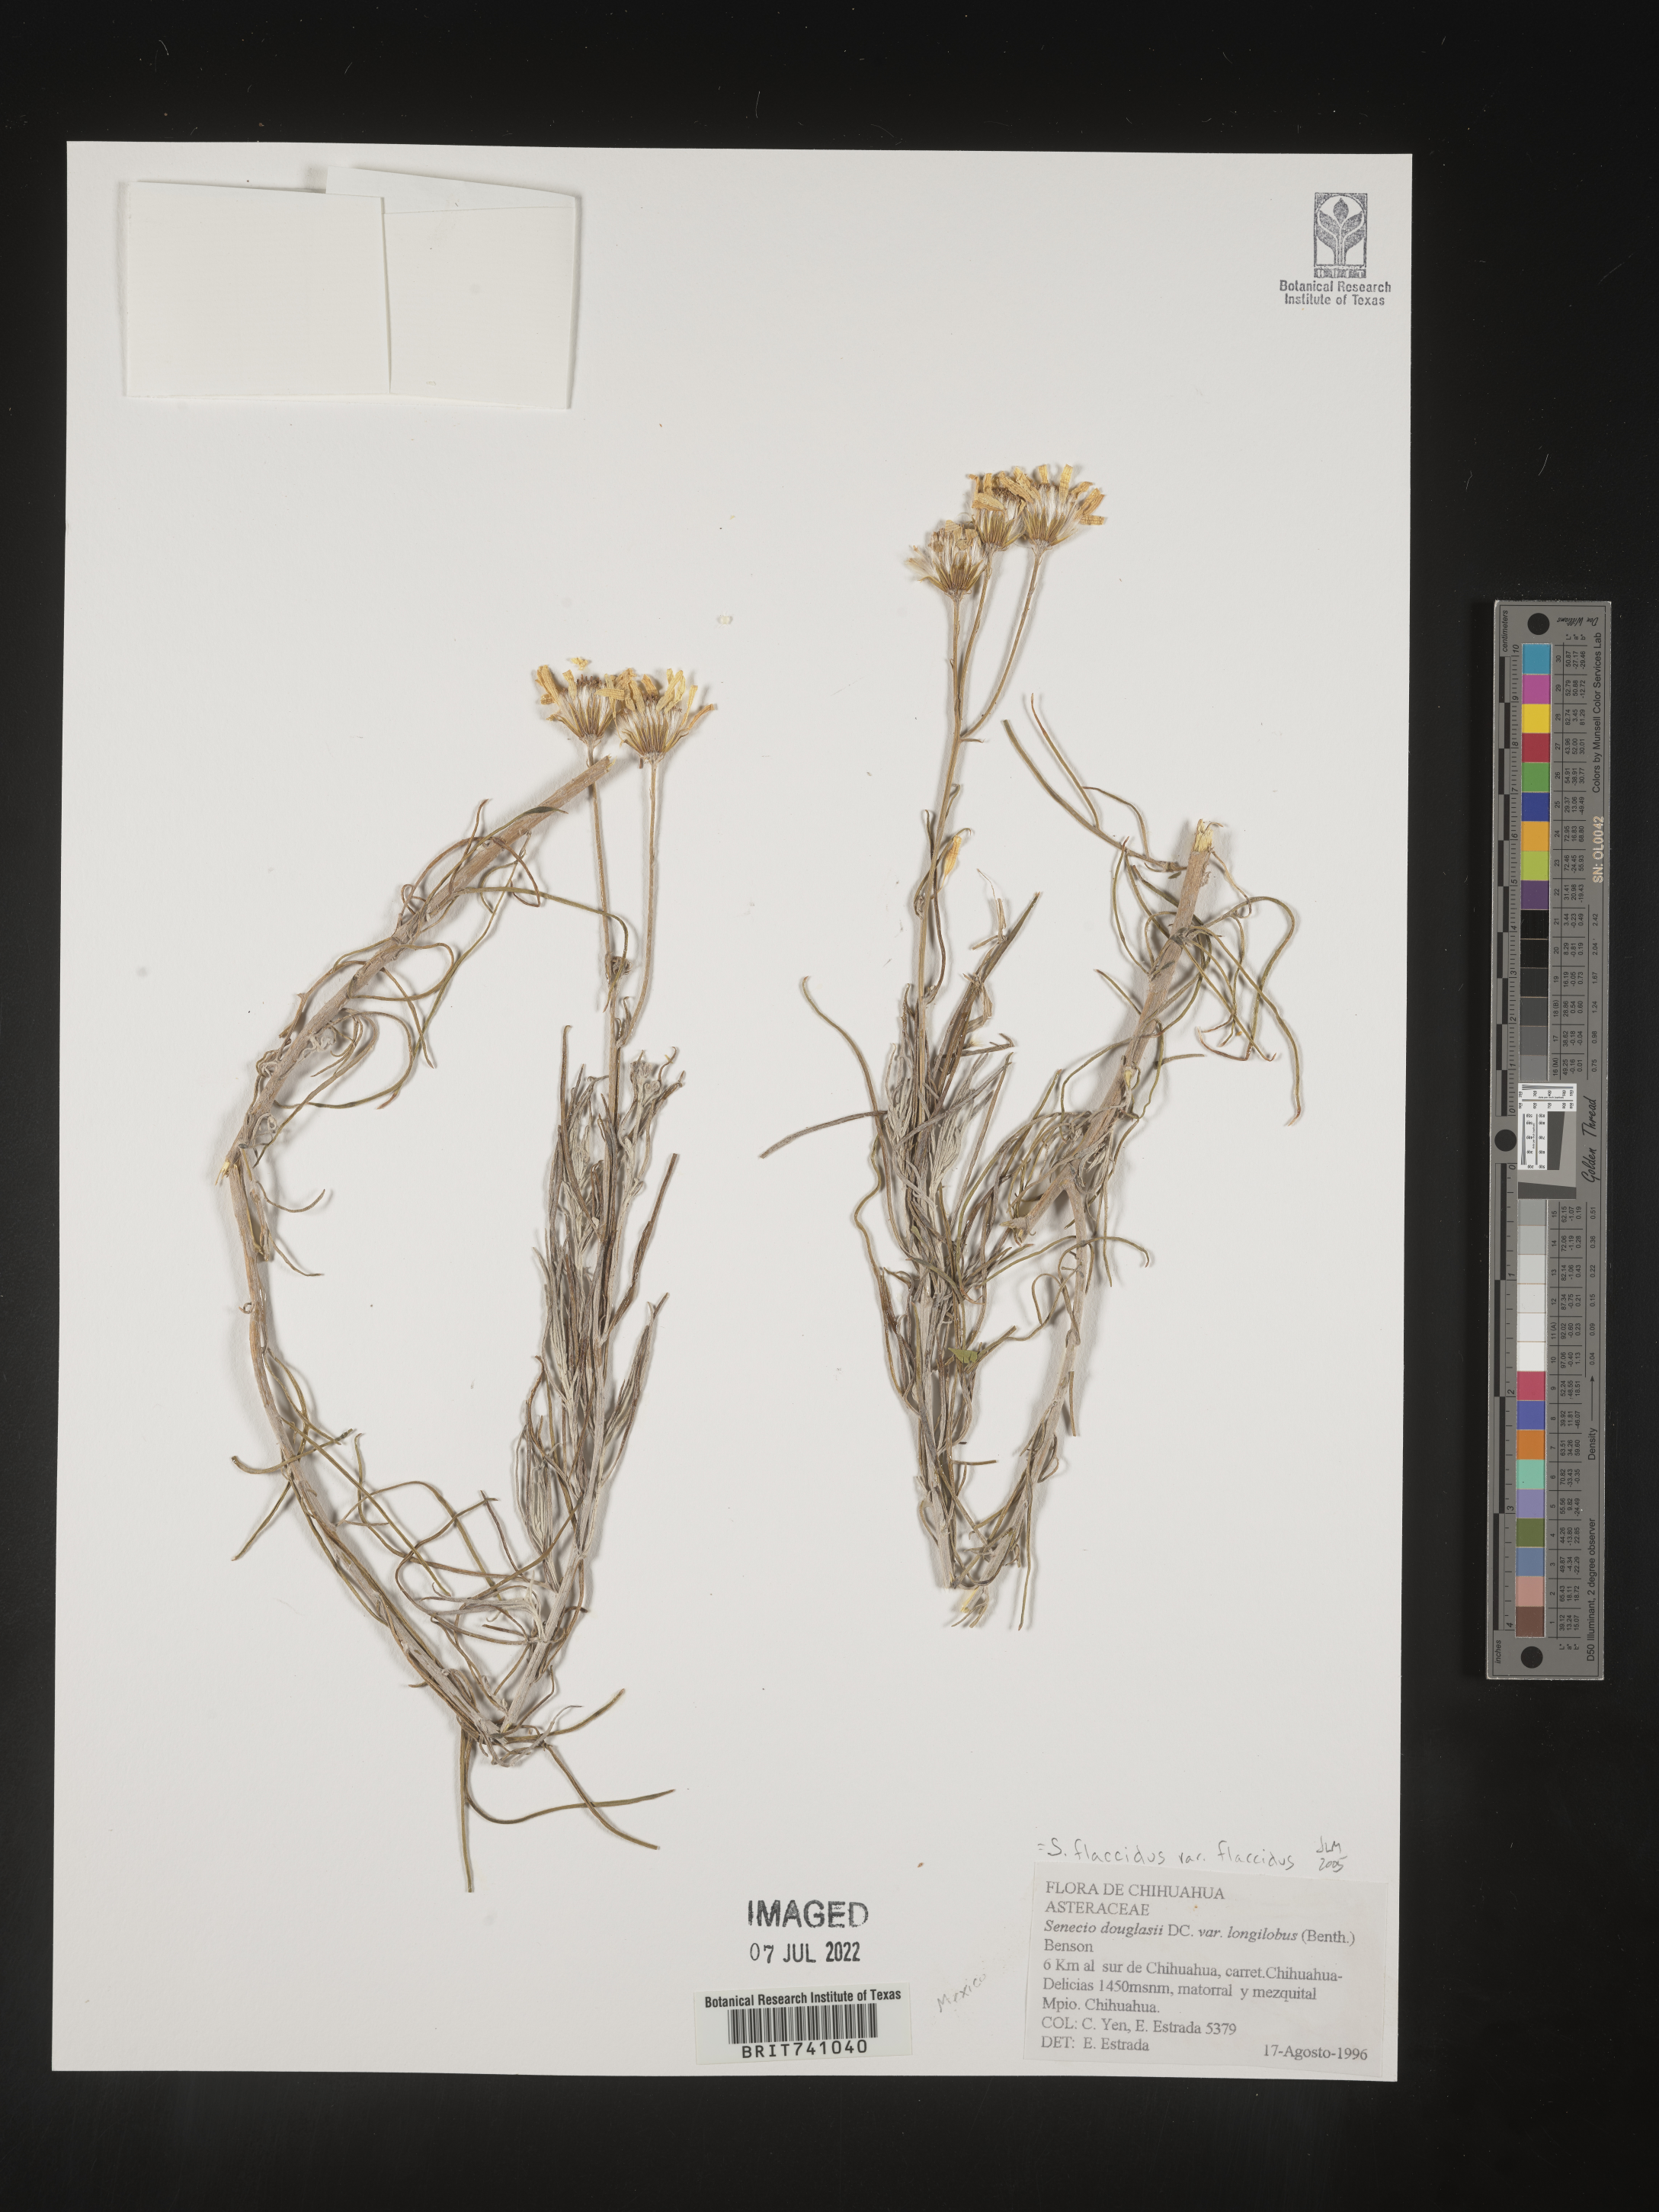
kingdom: Plantae
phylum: Tracheophyta
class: Magnoliopsida
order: Asterales
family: Asteraceae
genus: Senecio
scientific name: Senecio flaccidus
